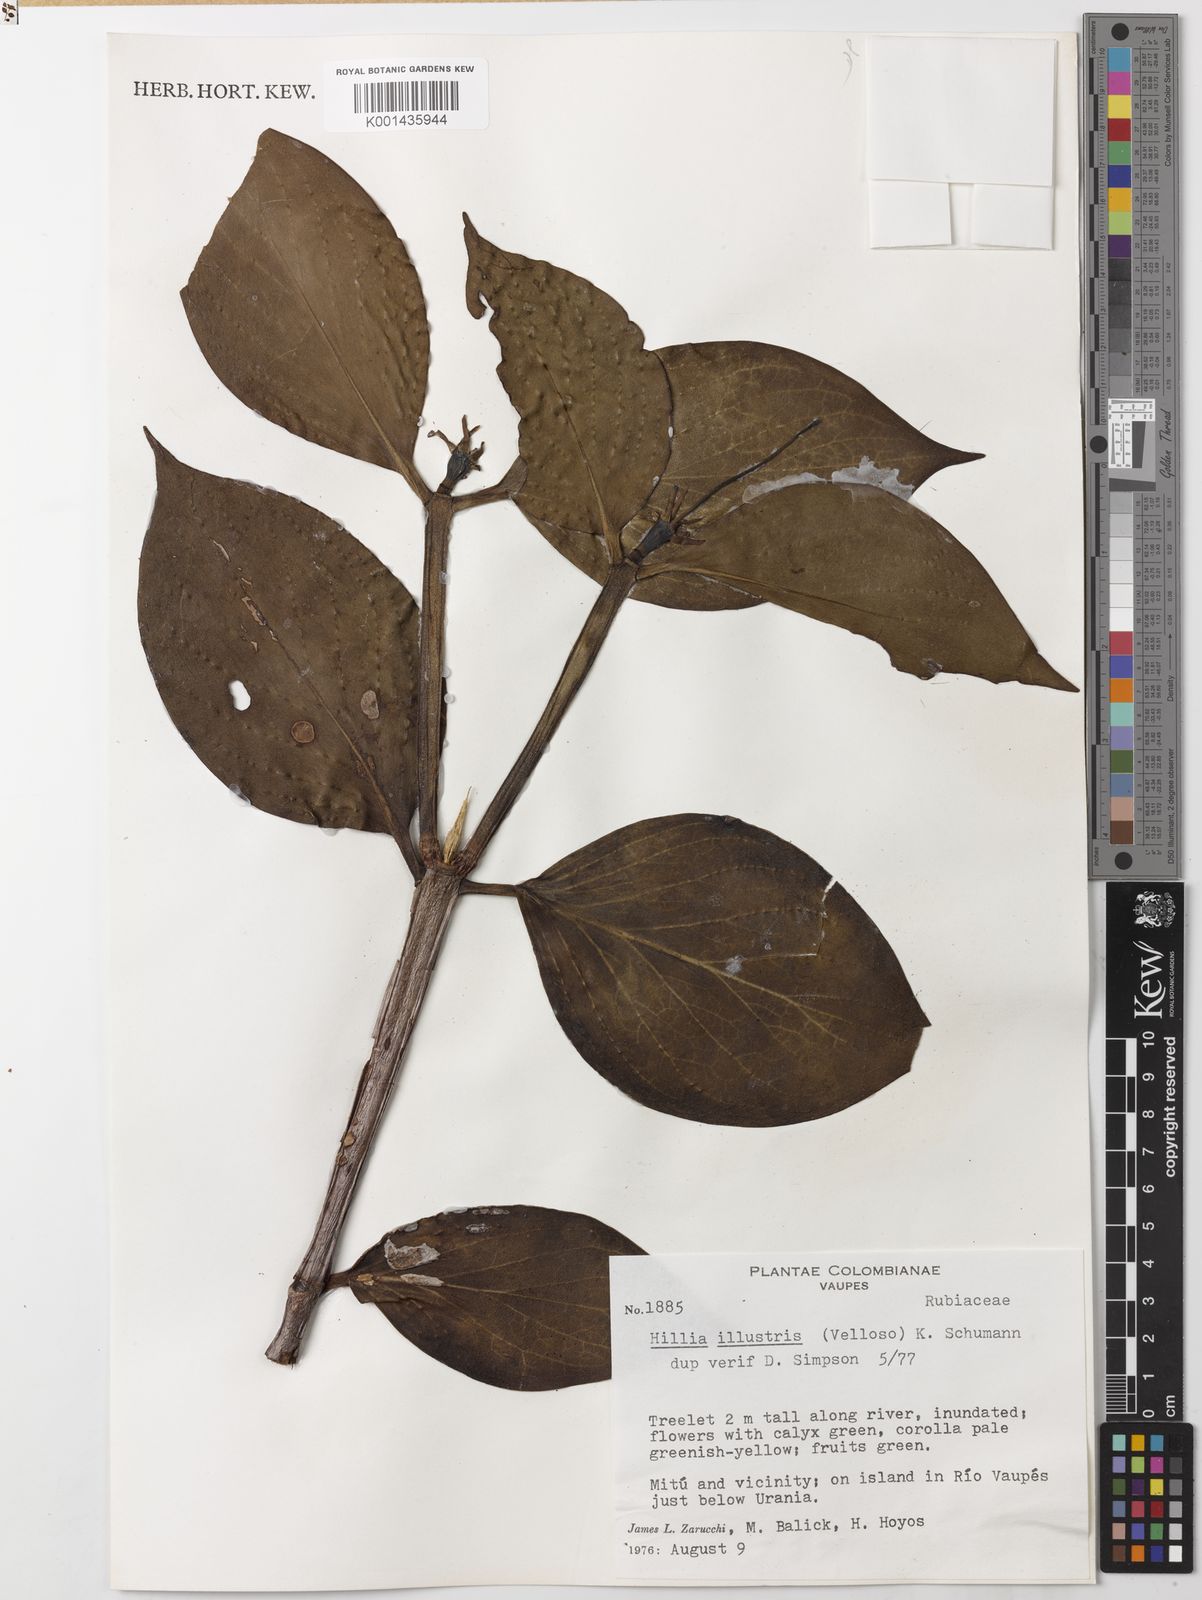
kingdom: Plantae
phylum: Tracheophyta
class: Magnoliopsida
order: Gentianales
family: Rubiaceae
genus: Hillia
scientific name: Hillia illustris
